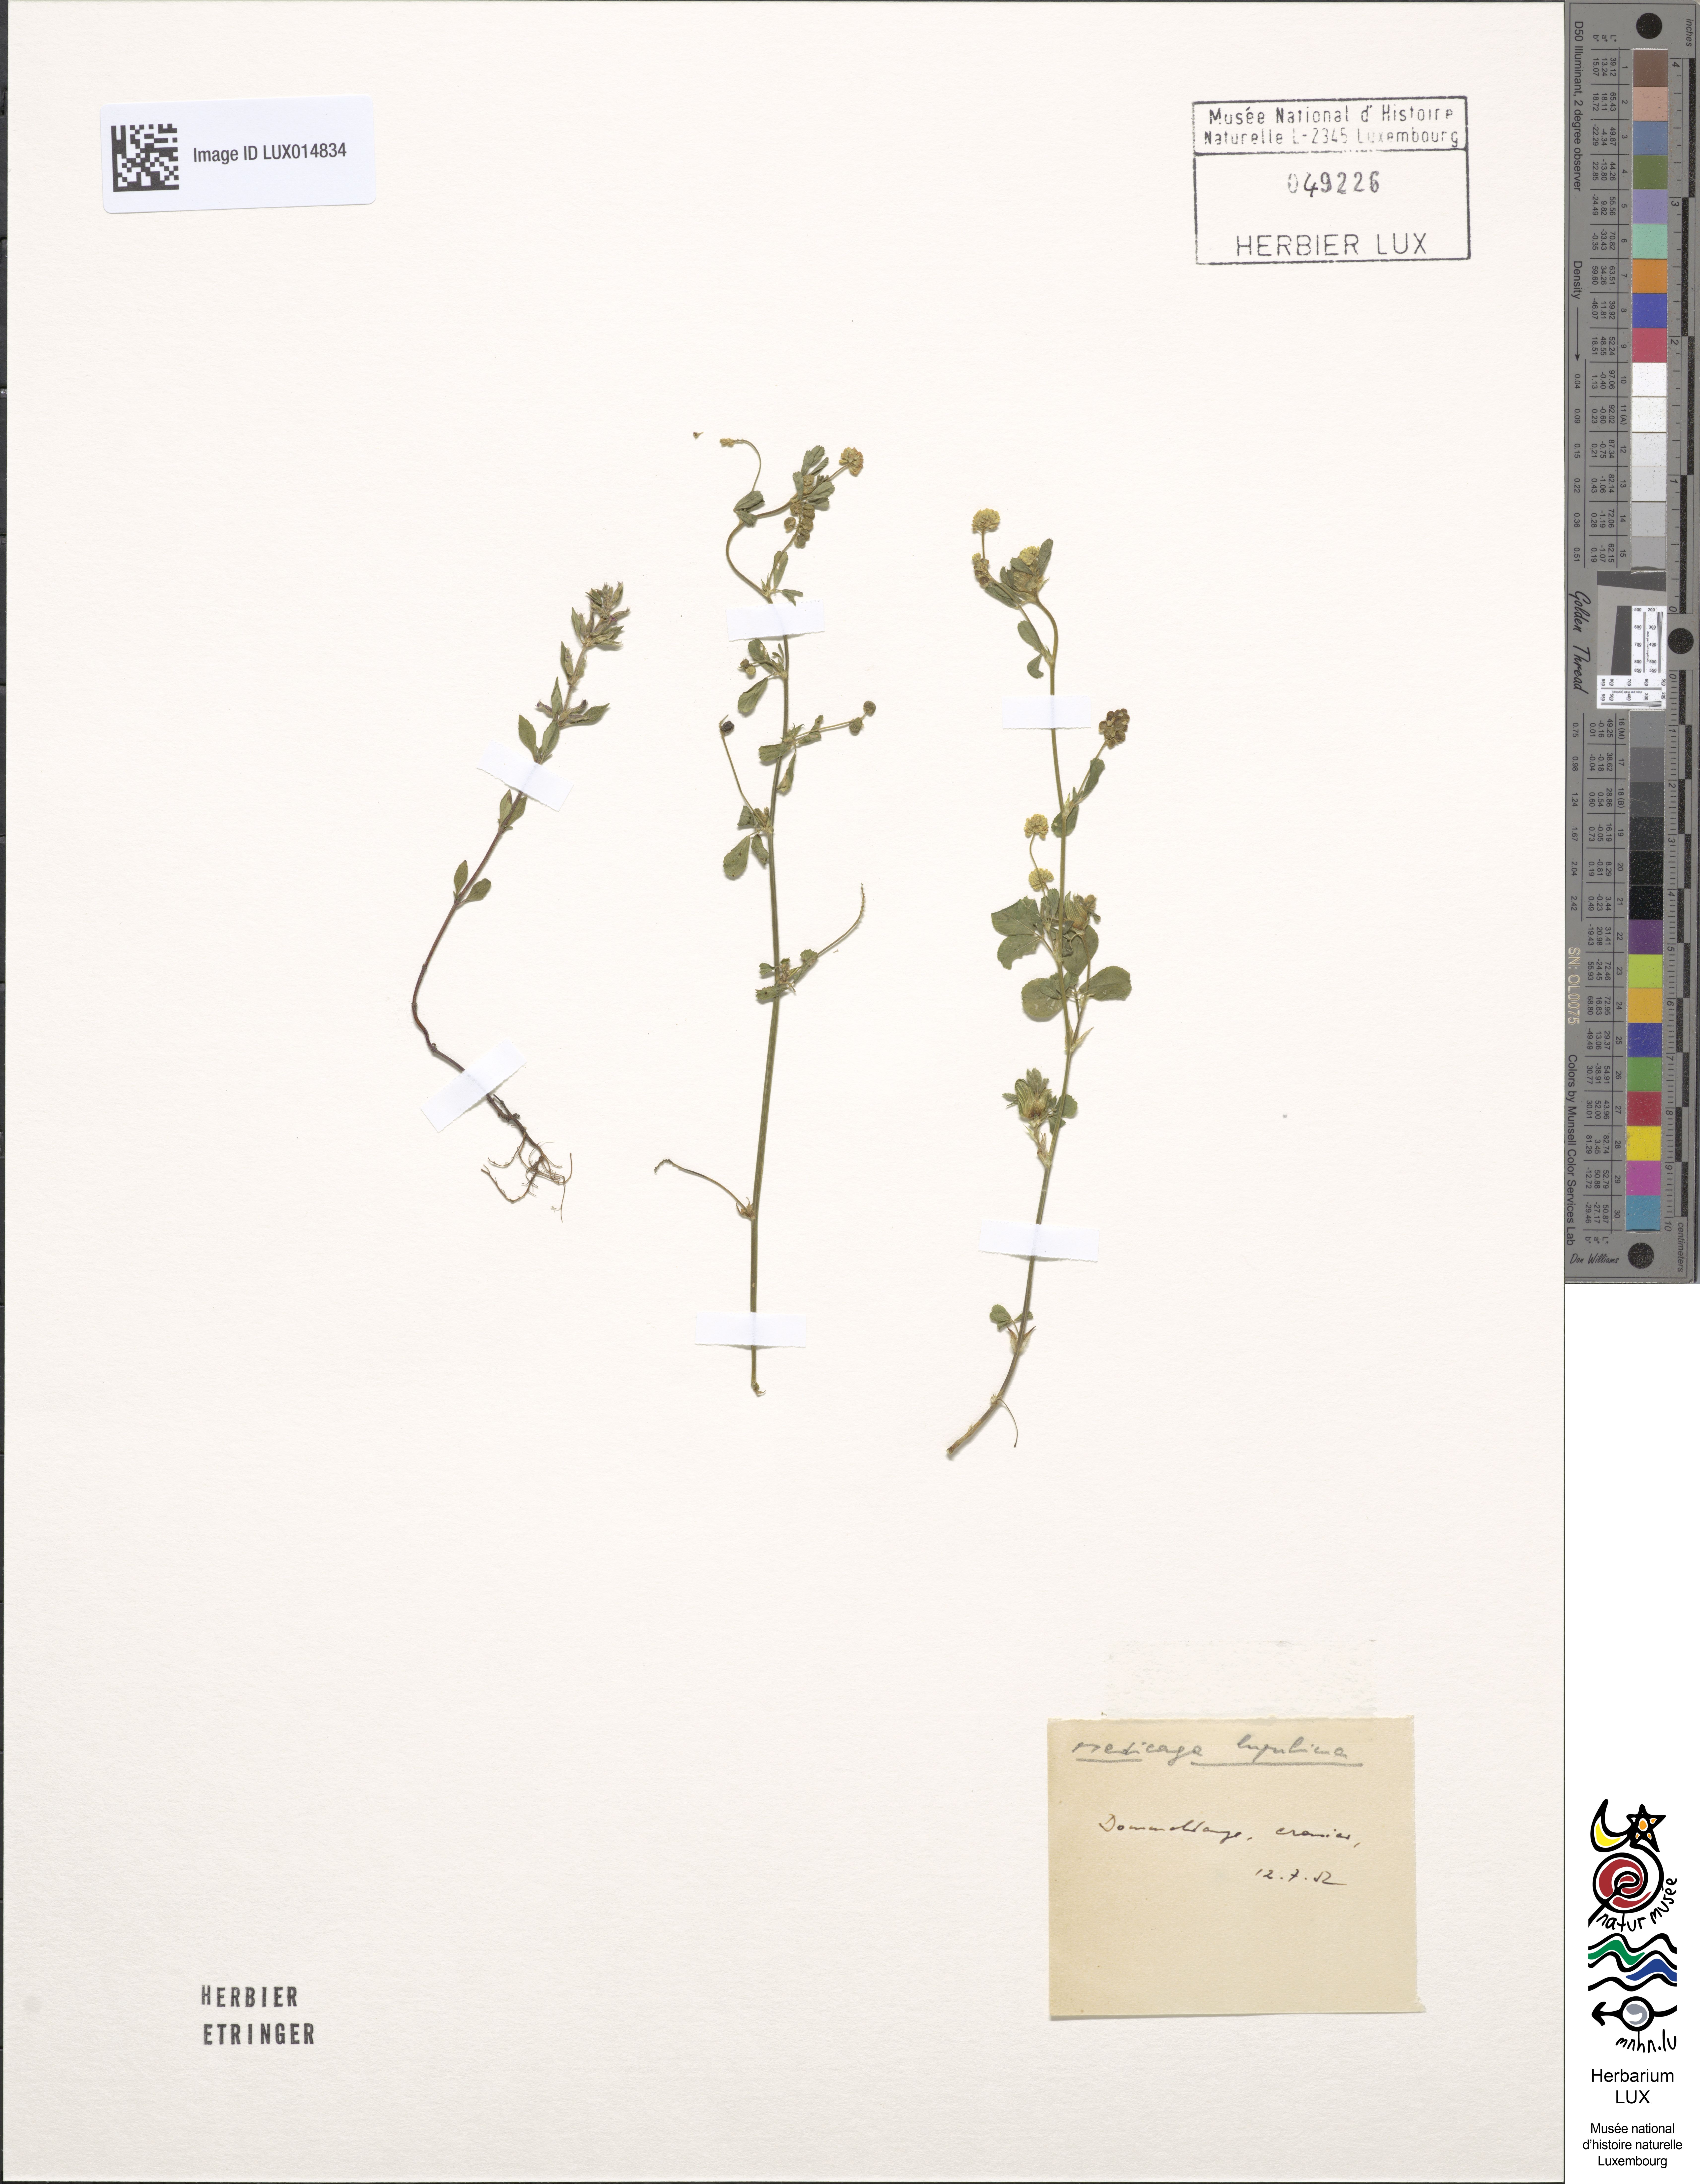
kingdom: Plantae
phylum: Tracheophyta
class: Magnoliopsida
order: Fabales
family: Fabaceae
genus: Medicago
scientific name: Medicago lupulina
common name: Black medick
